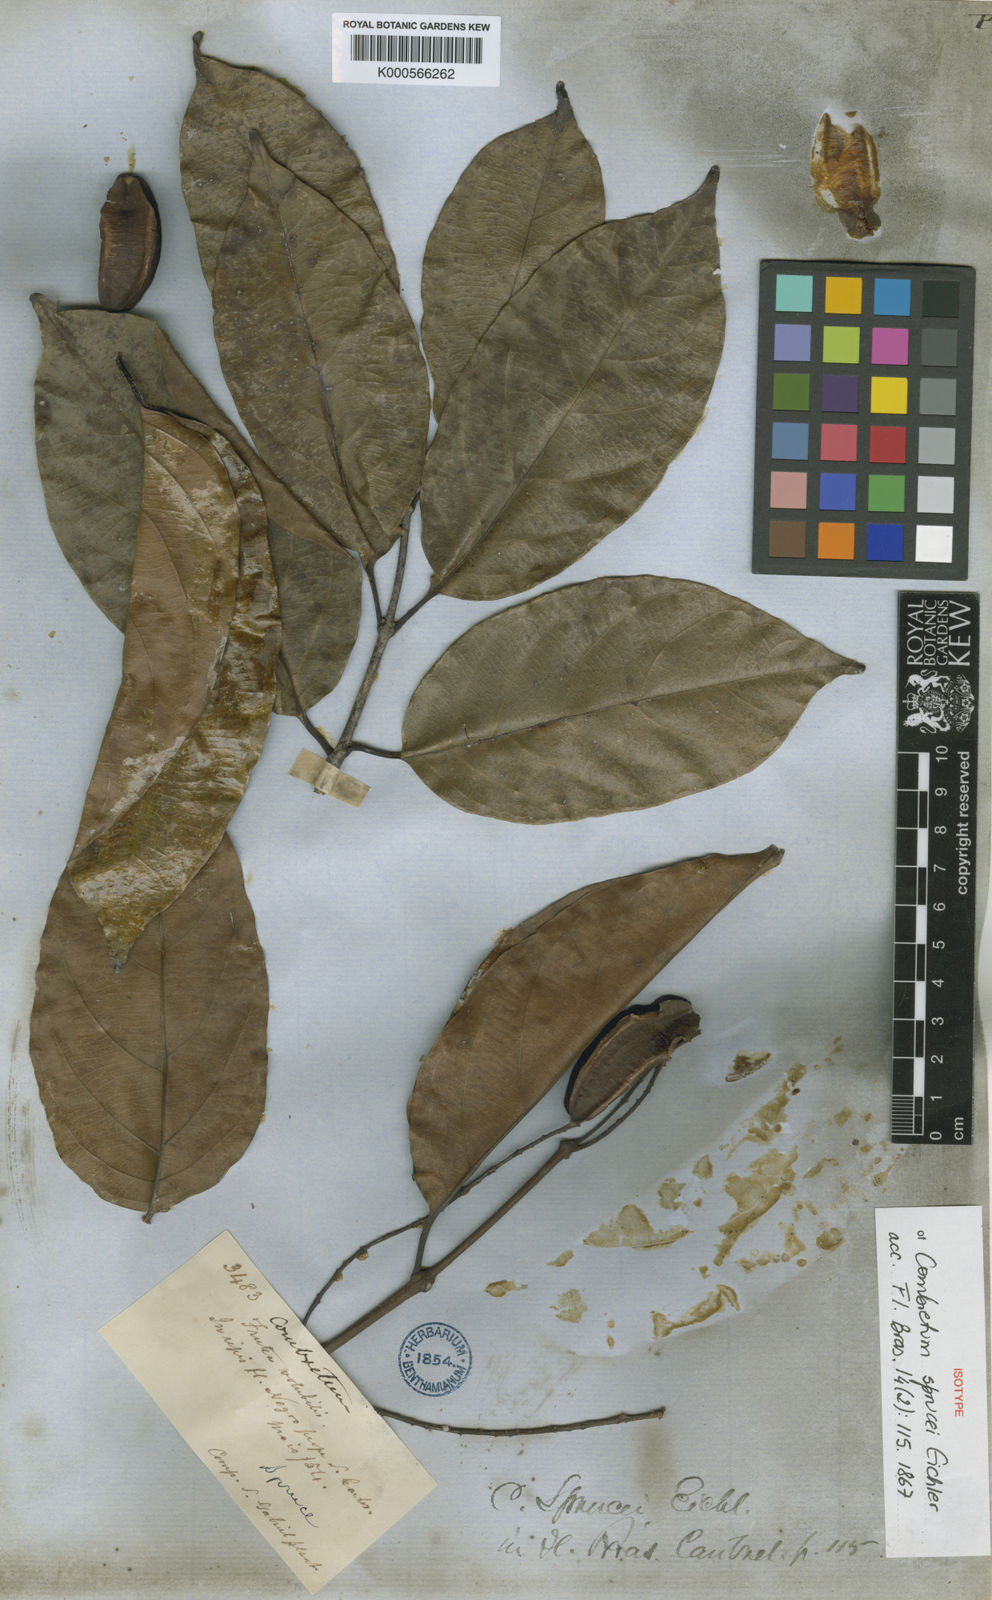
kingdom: Plantae
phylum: Tracheophyta
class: Magnoliopsida
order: Myrtales
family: Combretaceae
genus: Combretum
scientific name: Combretum paraguariense
